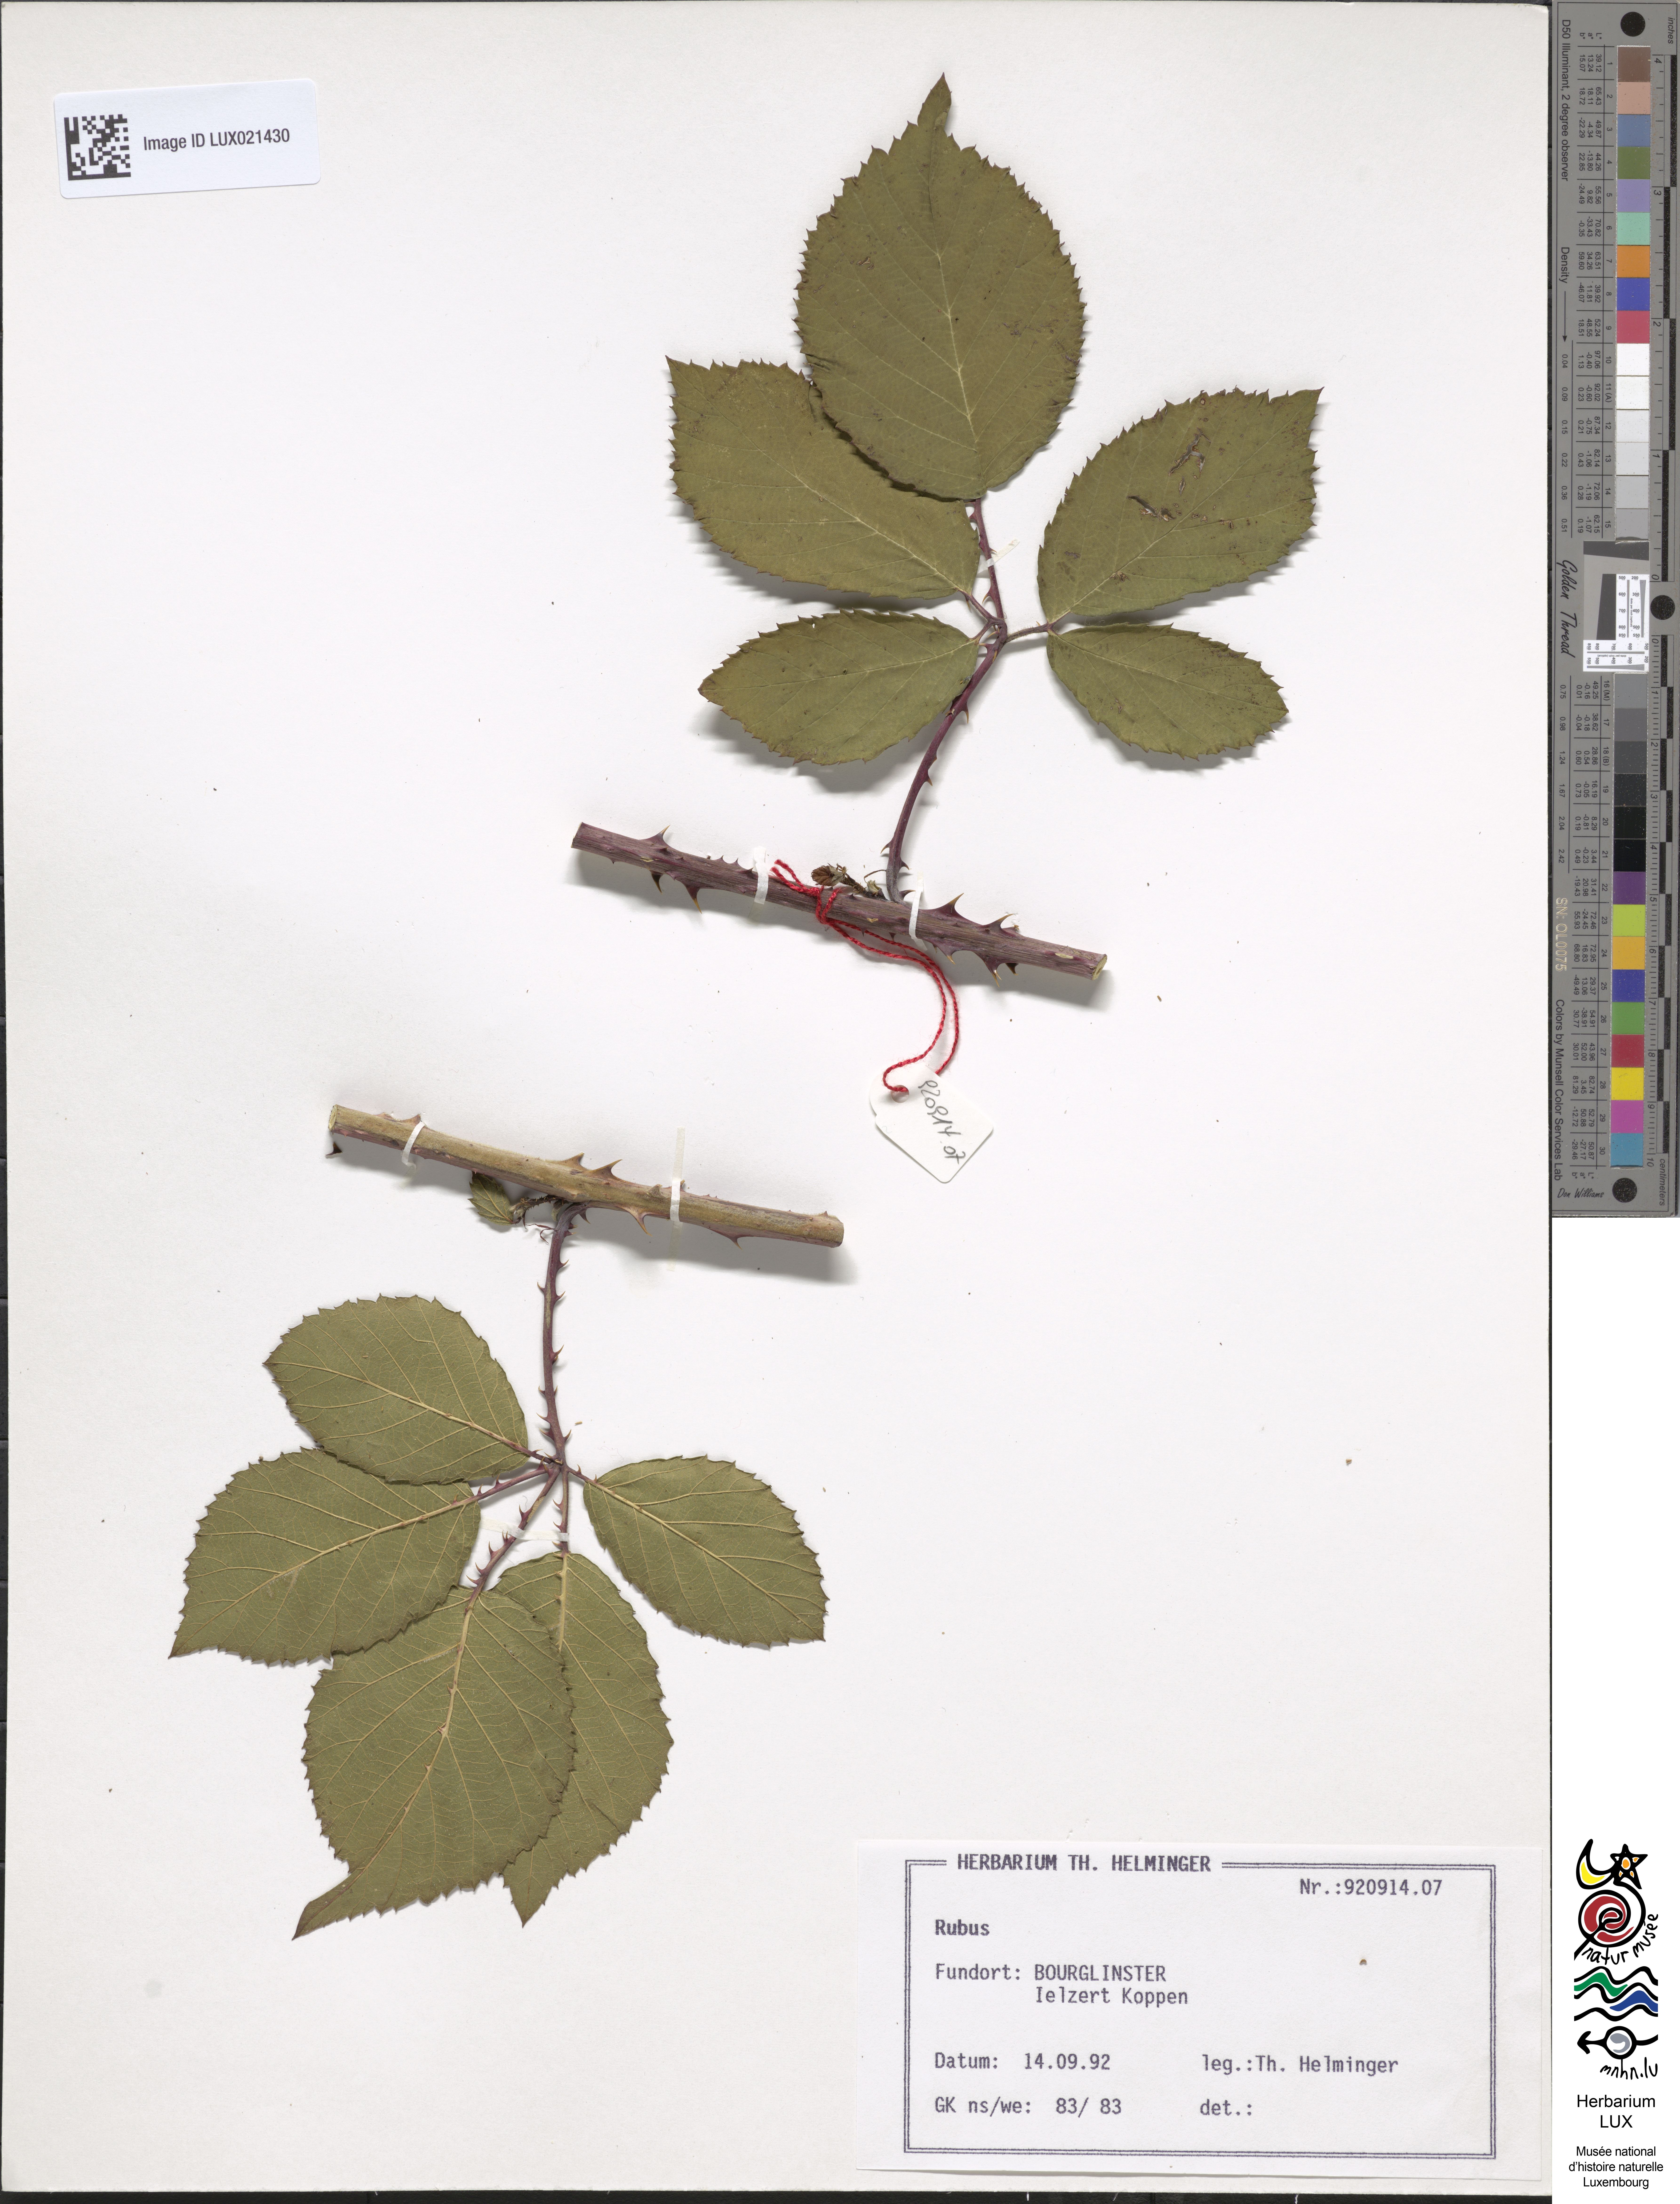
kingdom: Plantae
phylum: Tracheophyta
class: Magnoliopsida
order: Rosales
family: Rosaceae
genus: Rubus
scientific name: Rubus
